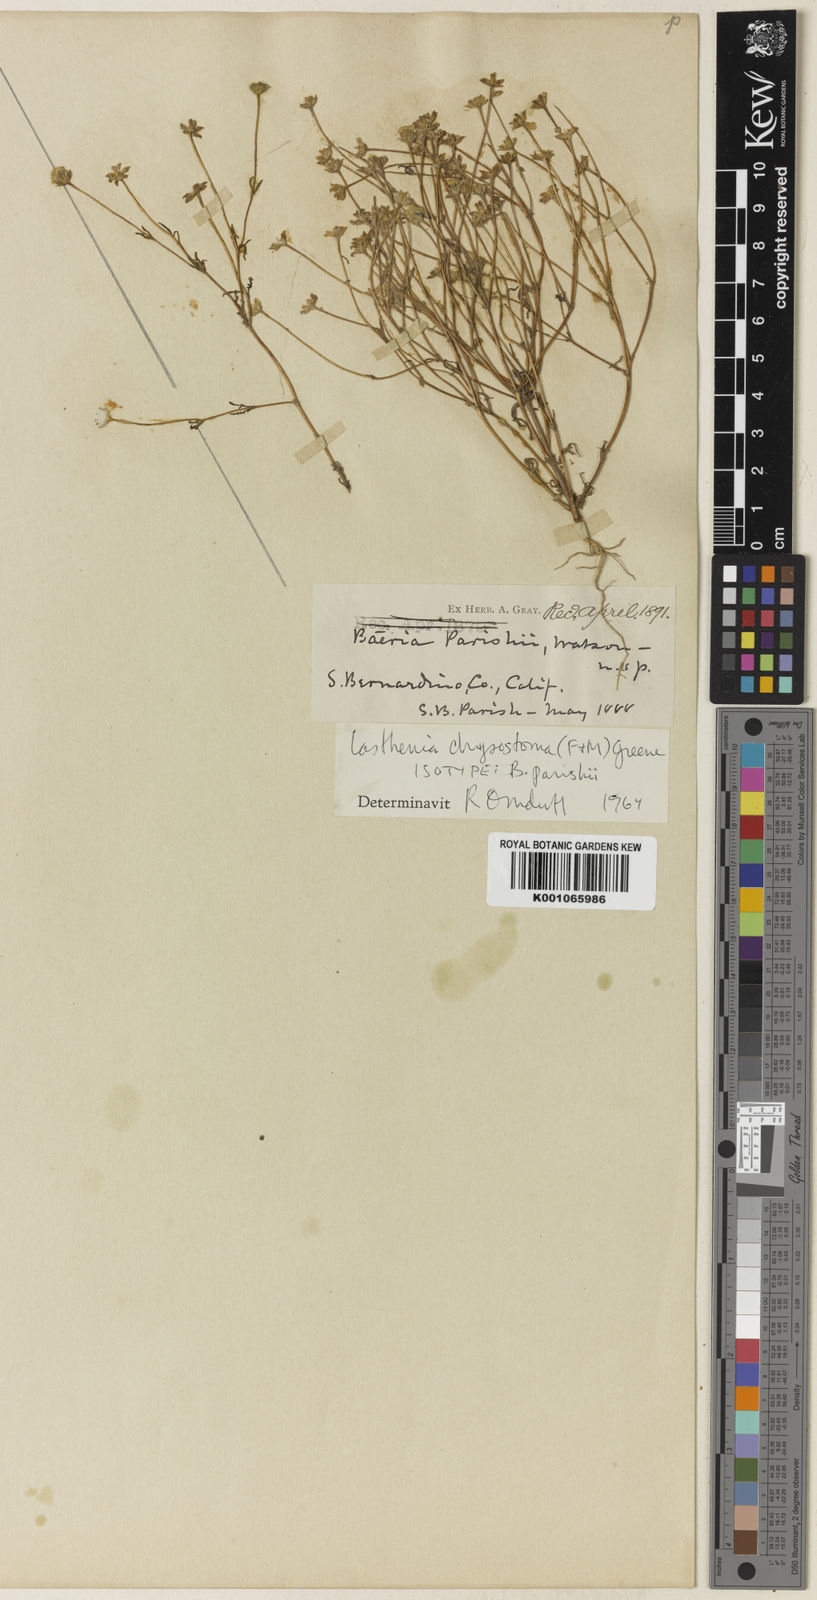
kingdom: Plantae
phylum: Tracheophyta
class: Magnoliopsida
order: Asterales
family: Asteraceae
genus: Lasthenia
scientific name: Lasthenia californica
